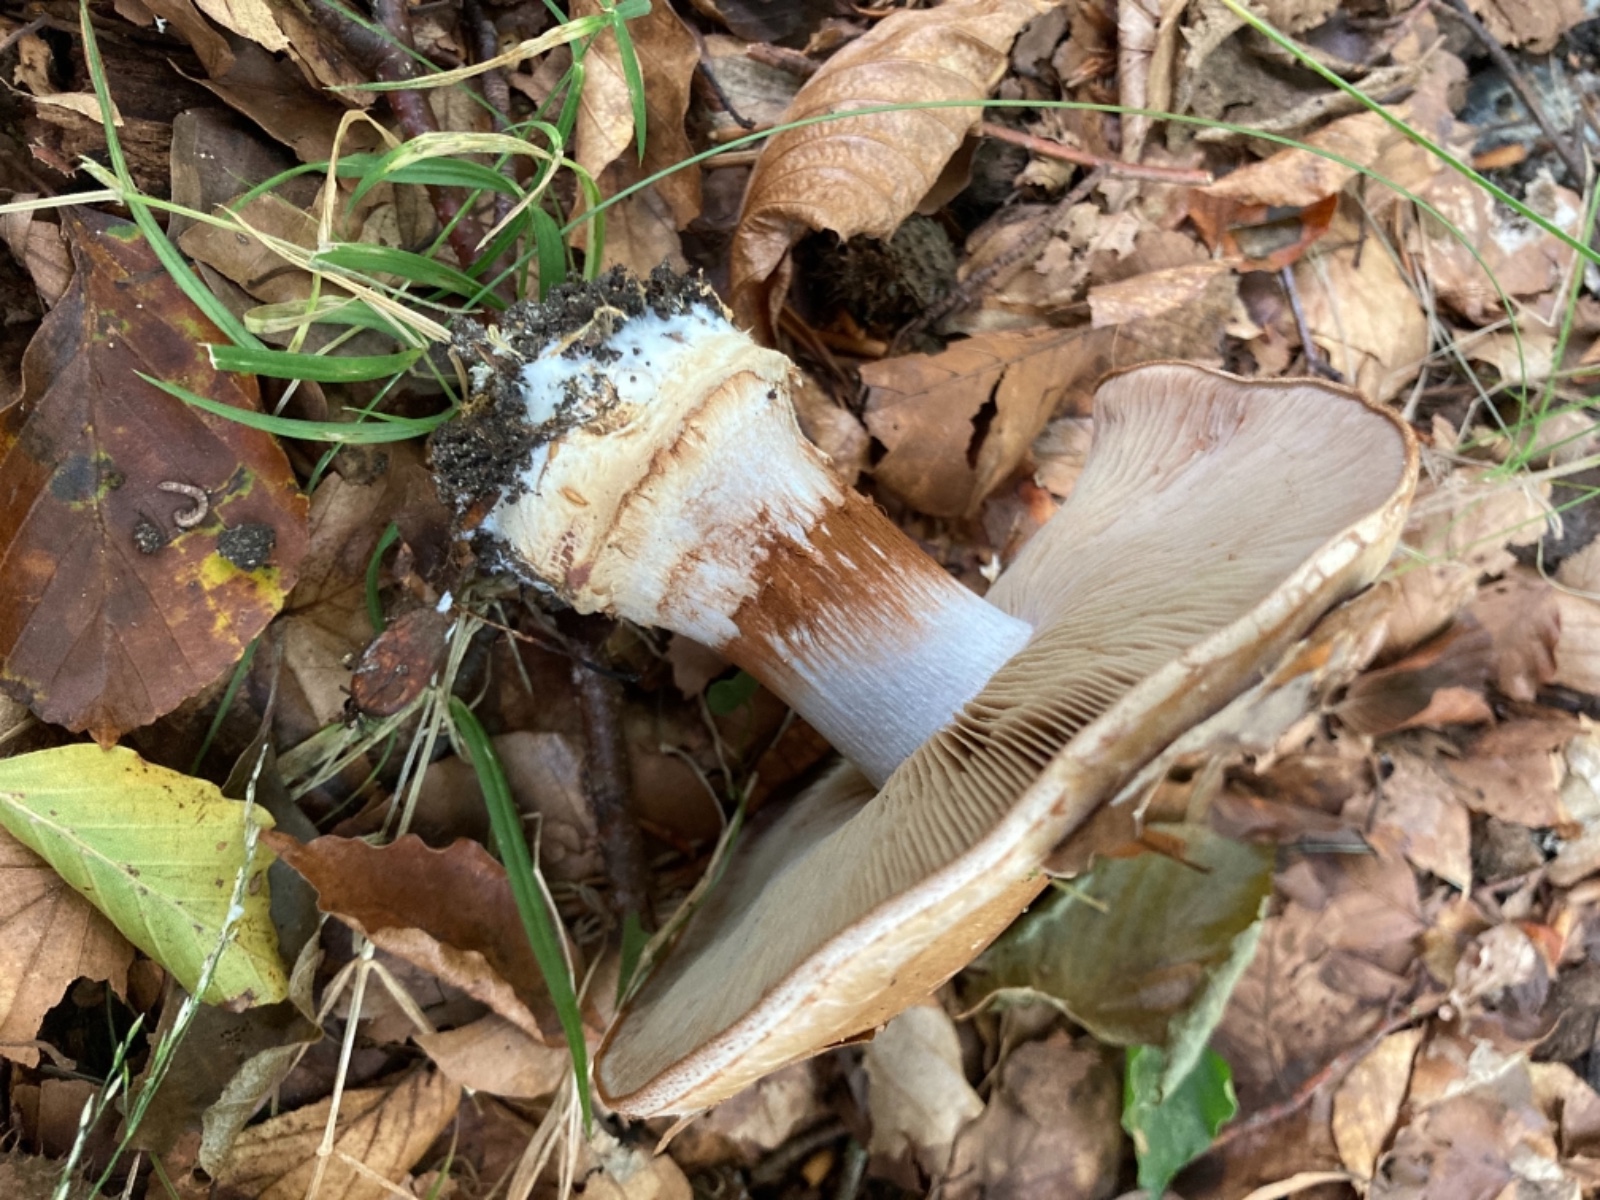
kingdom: Fungi
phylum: Basidiomycota
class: Agaricomycetes
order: Agaricales
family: Cortinariaceae
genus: Cortinarius
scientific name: Cortinarius anserinus
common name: bøge-slørhat
